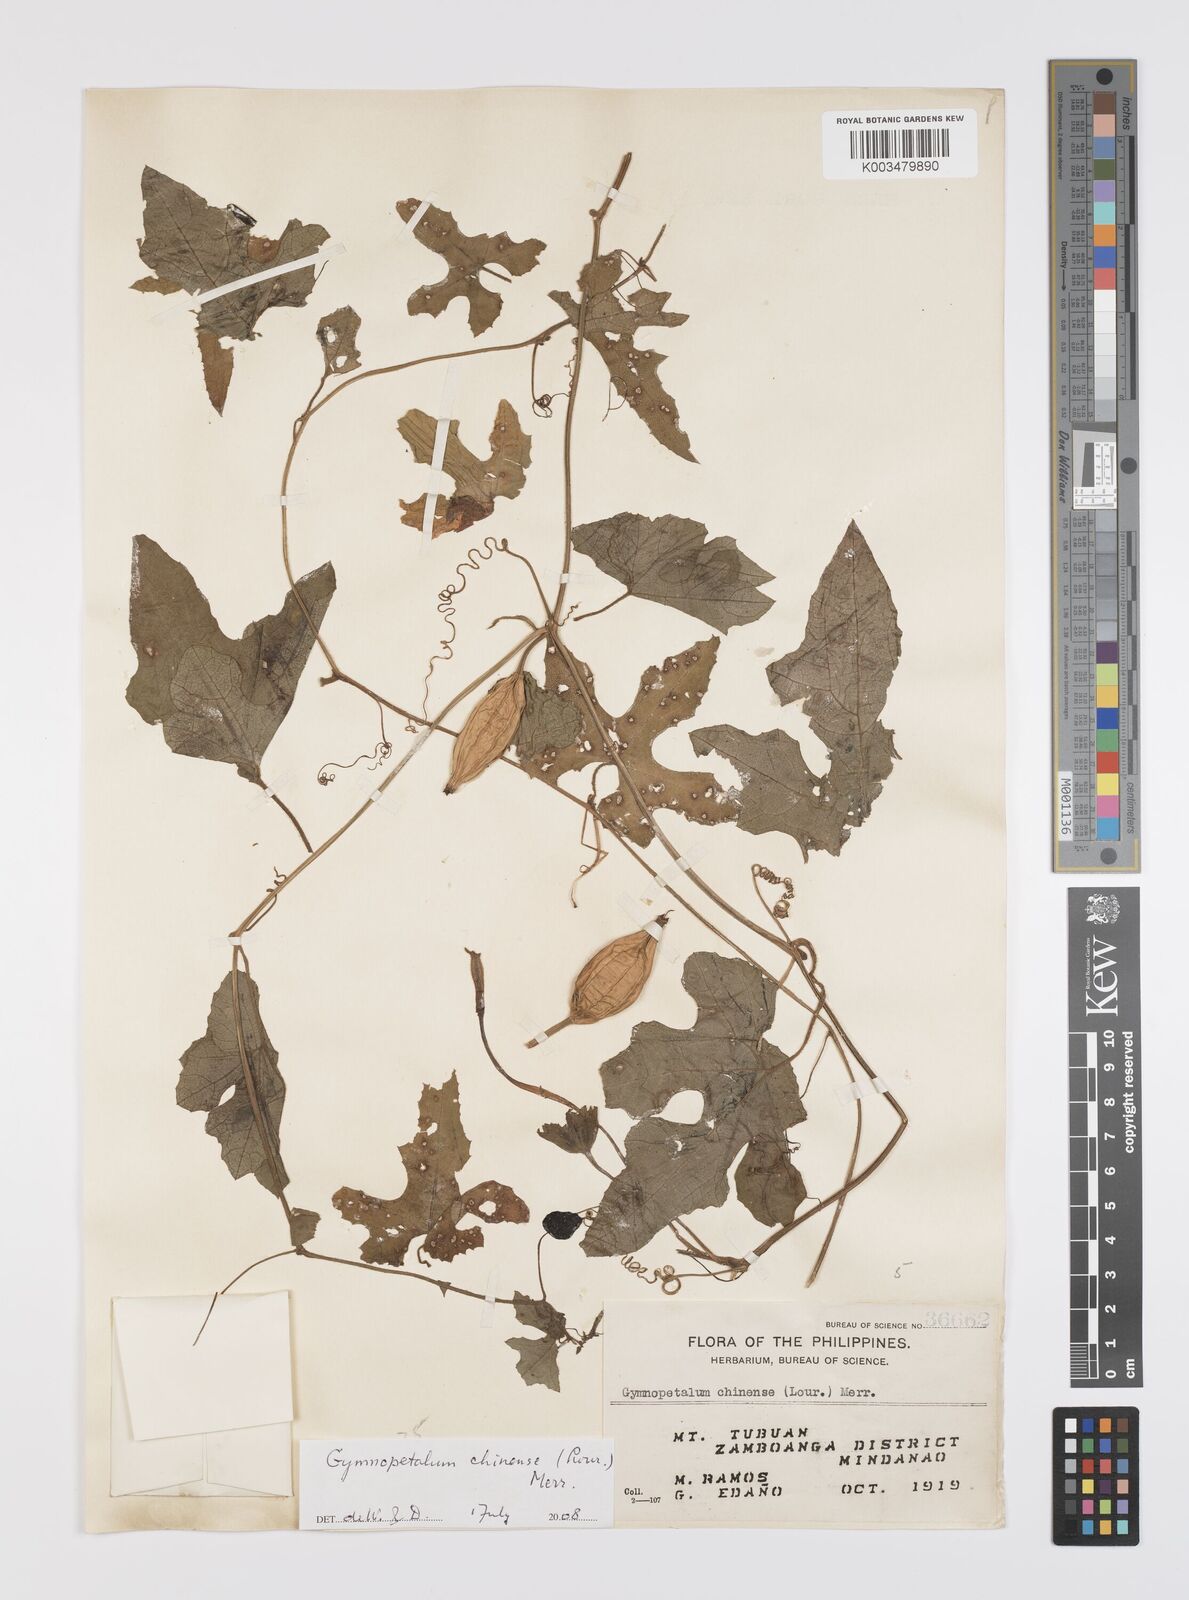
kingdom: Plantae
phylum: Tracheophyta
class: Magnoliopsida
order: Cucurbitales
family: Cucurbitaceae
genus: Trichosanthes
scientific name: Trichosanthes costata
